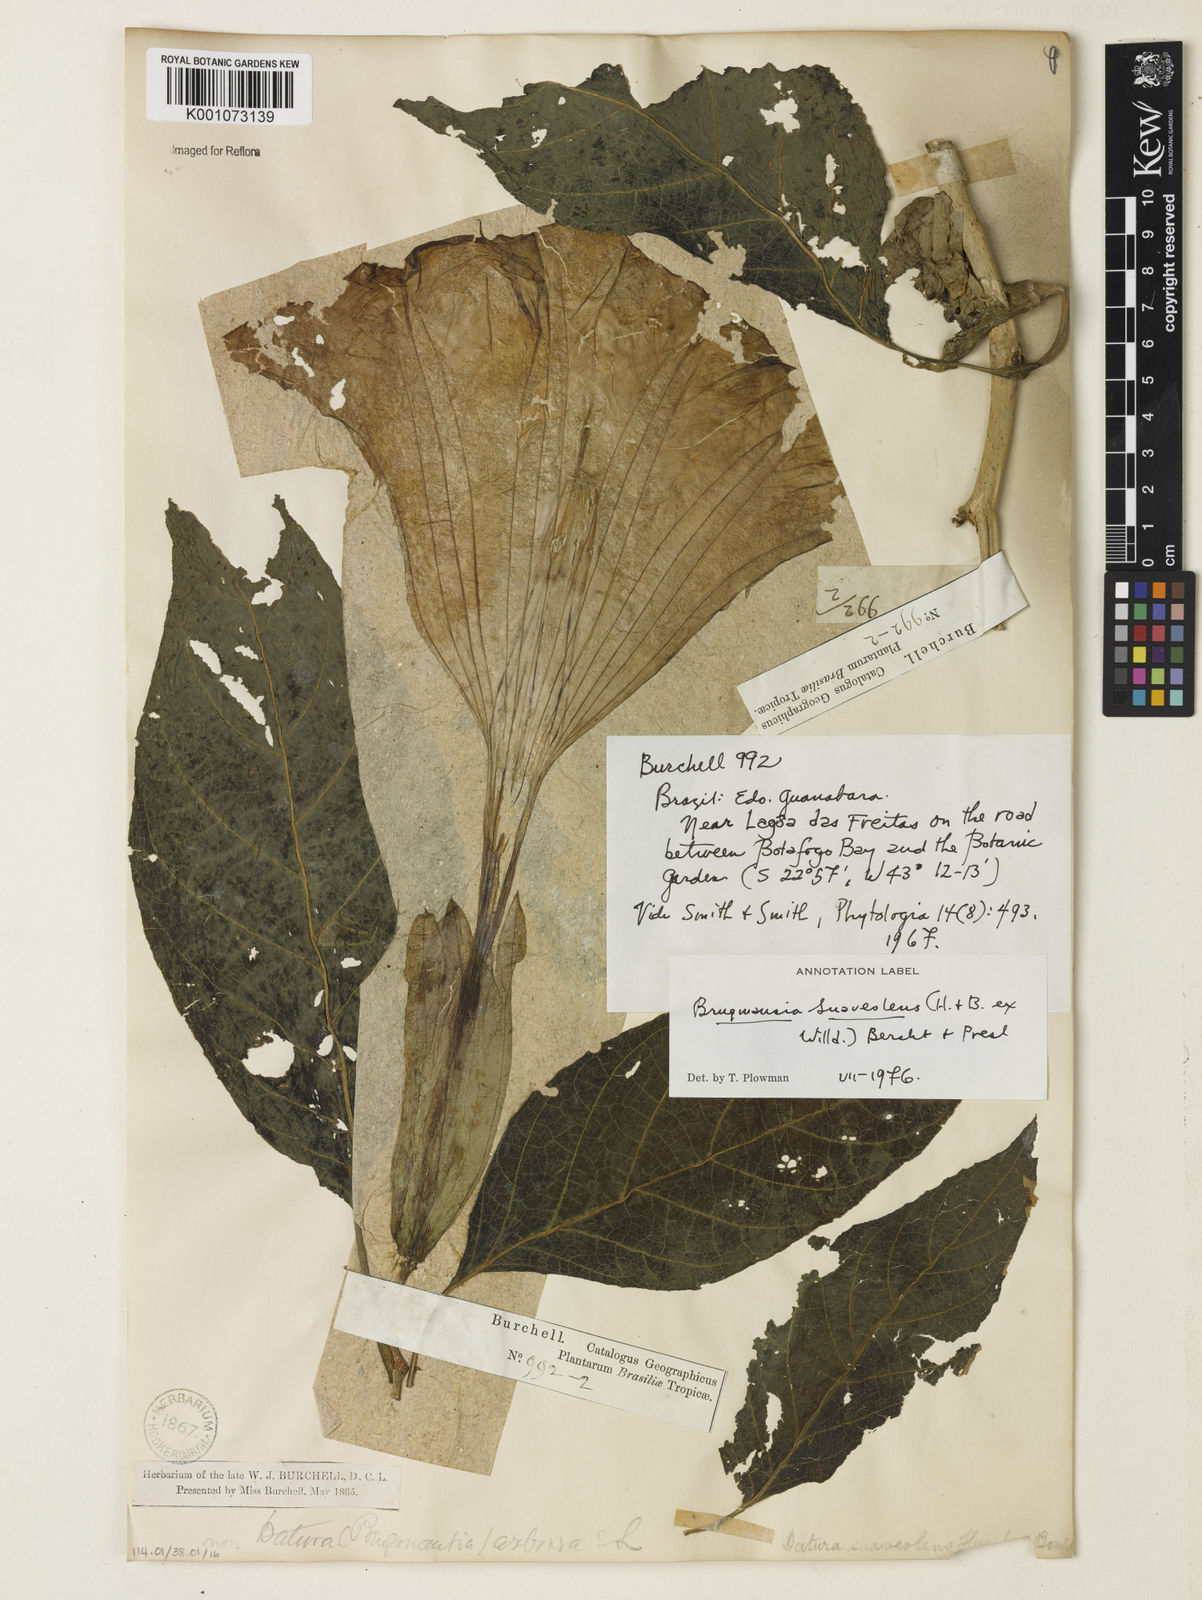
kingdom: Plantae
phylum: Tracheophyta
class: Magnoliopsida
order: Solanales
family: Solanaceae
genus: Brugmansia
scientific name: Brugmansia
